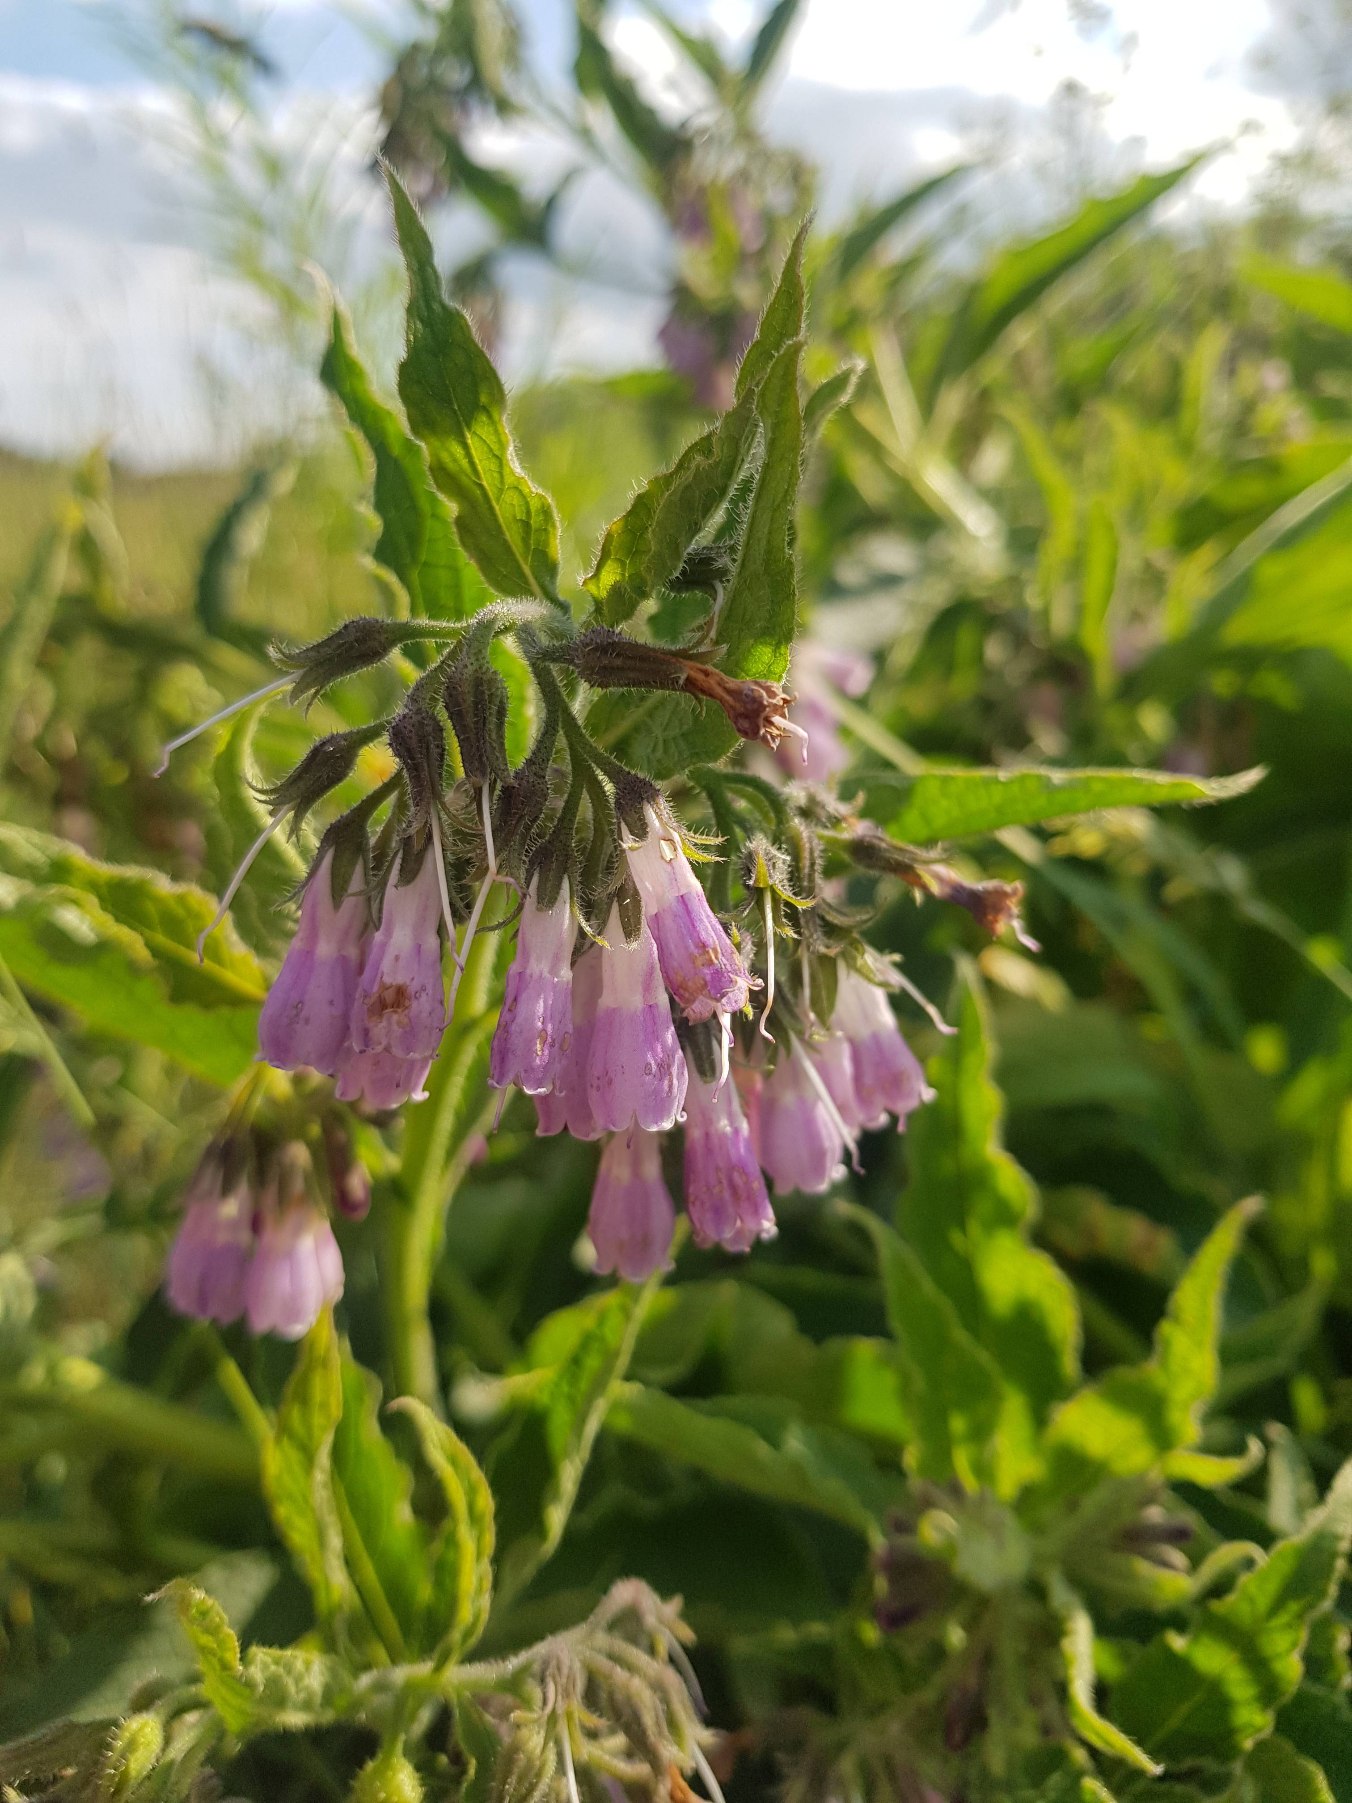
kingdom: Plantae
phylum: Tracheophyta
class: Magnoliopsida
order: Boraginales
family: Boraginaceae
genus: Symphytum
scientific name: Symphytum uplandicum
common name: Foder-kulsukker
